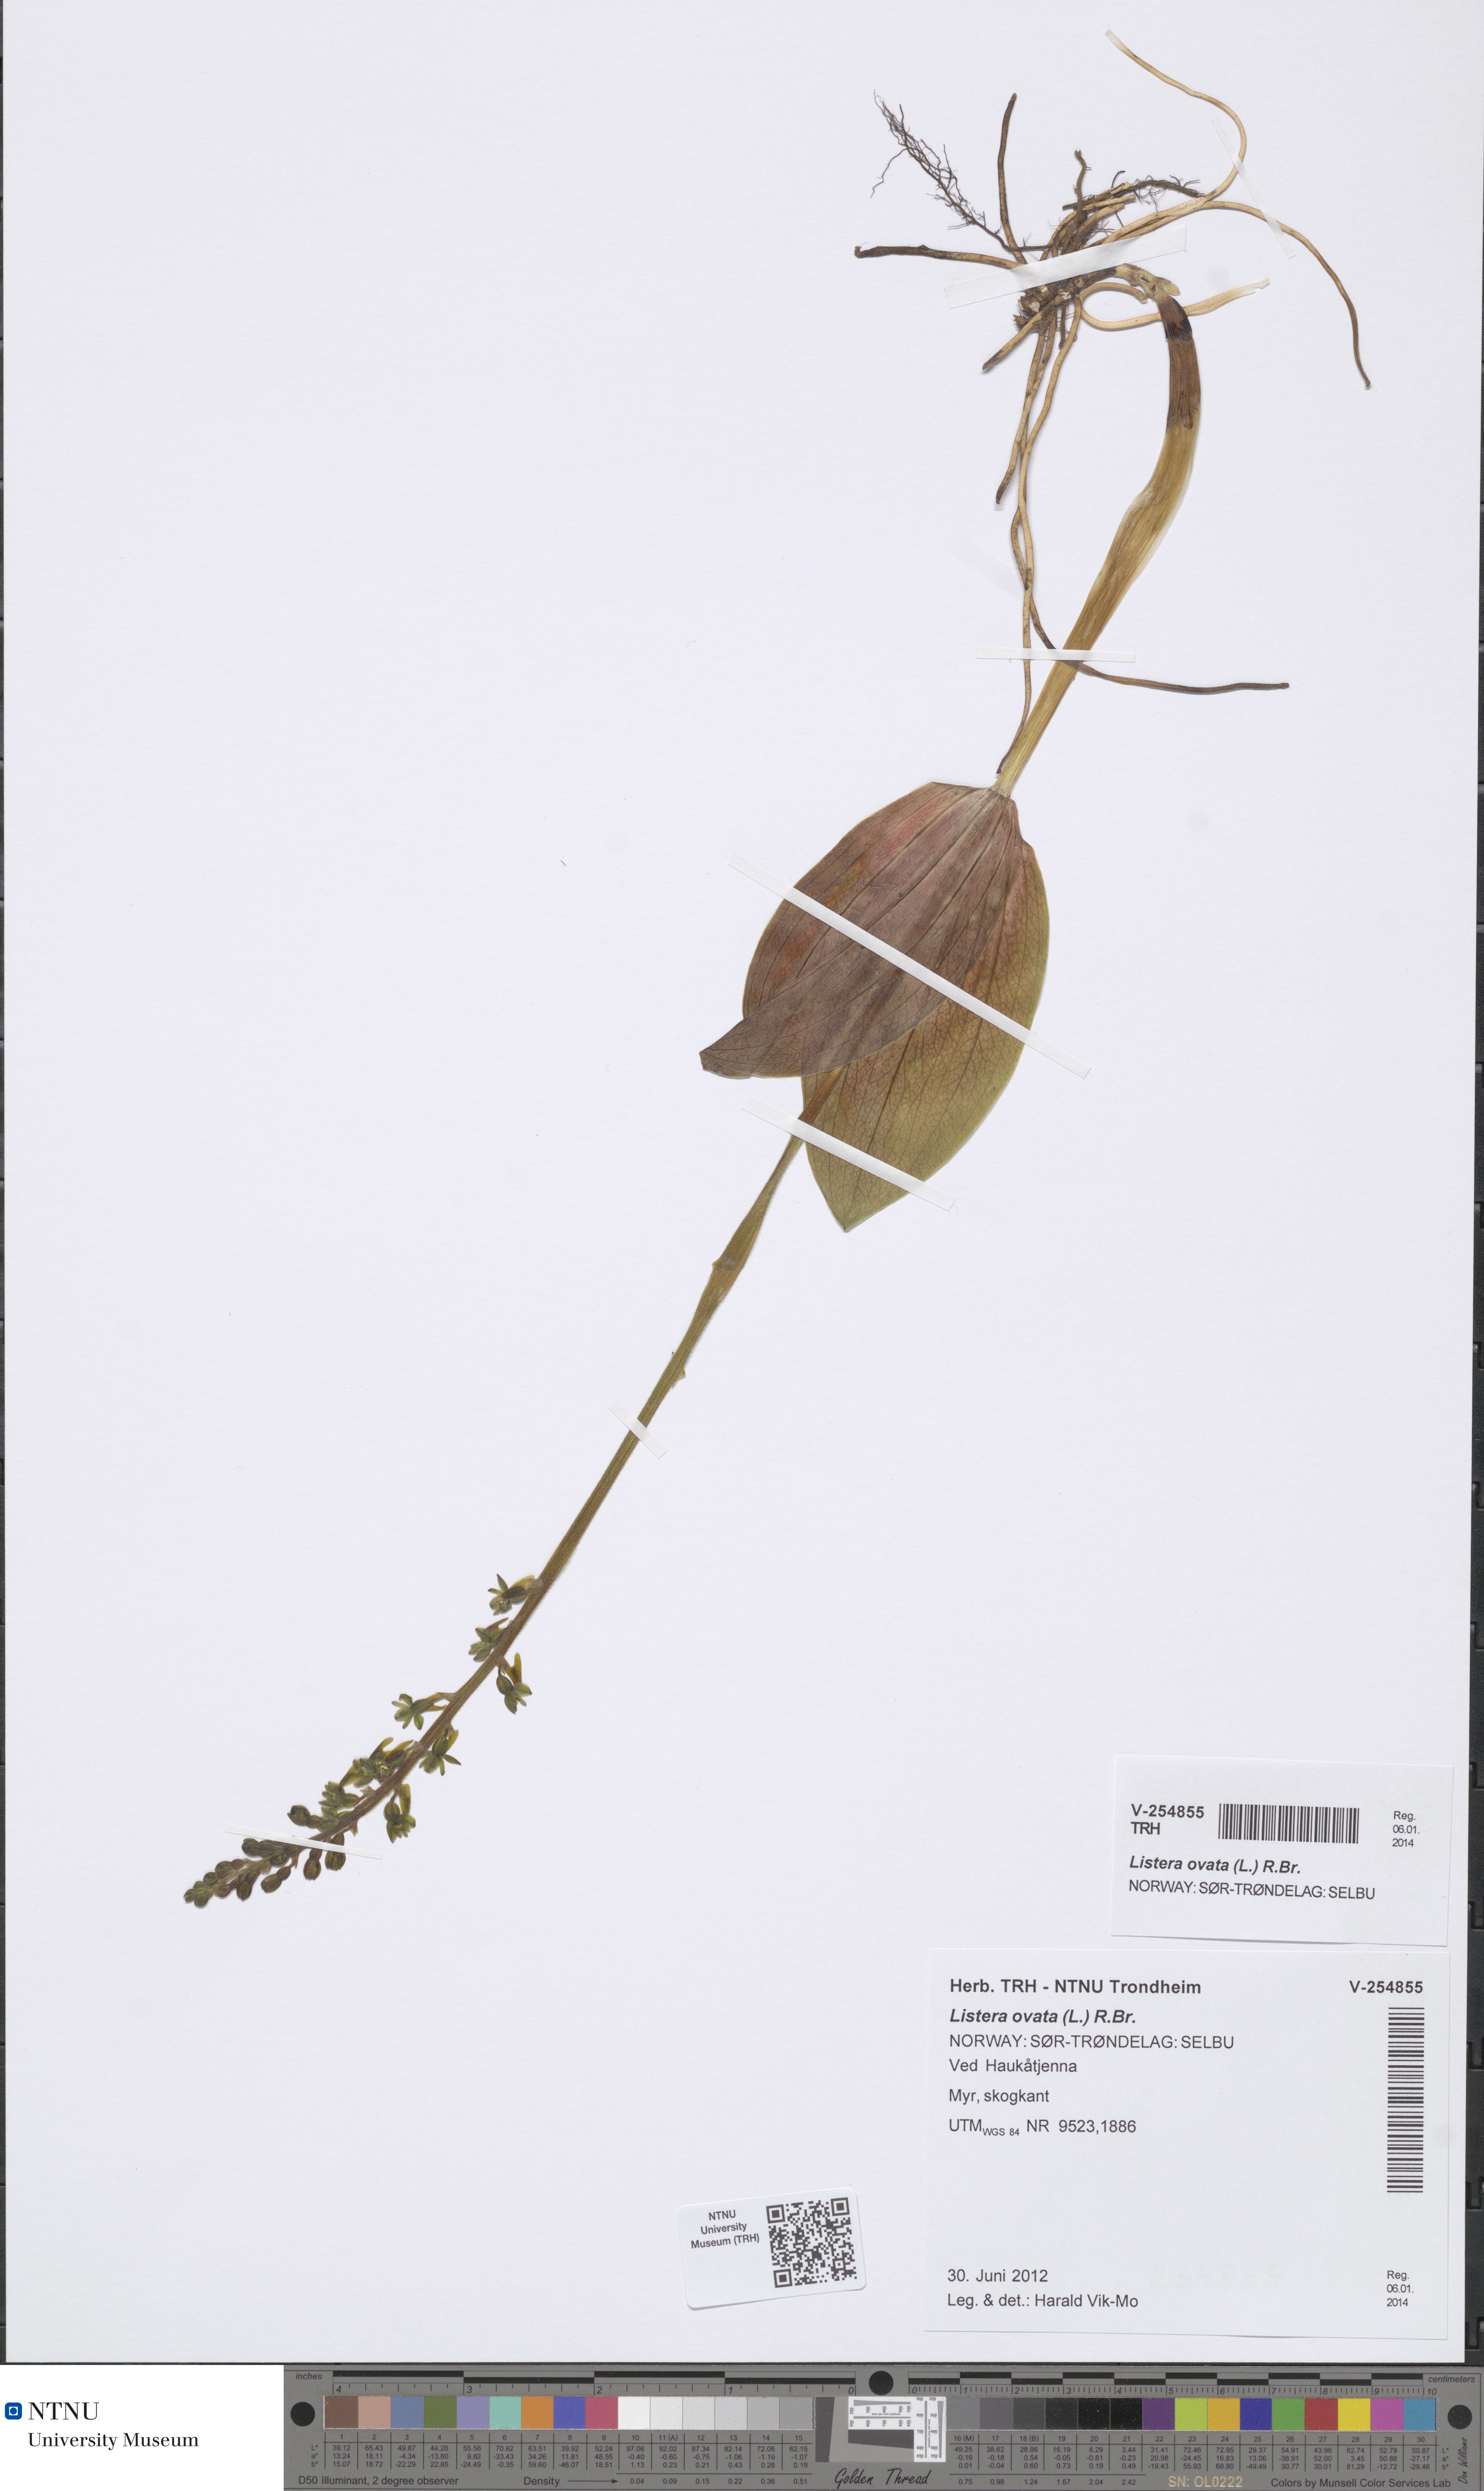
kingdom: Plantae
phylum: Tracheophyta
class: Liliopsida
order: Asparagales
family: Orchidaceae
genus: Neottia
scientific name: Neottia ovata
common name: Common twayblade
